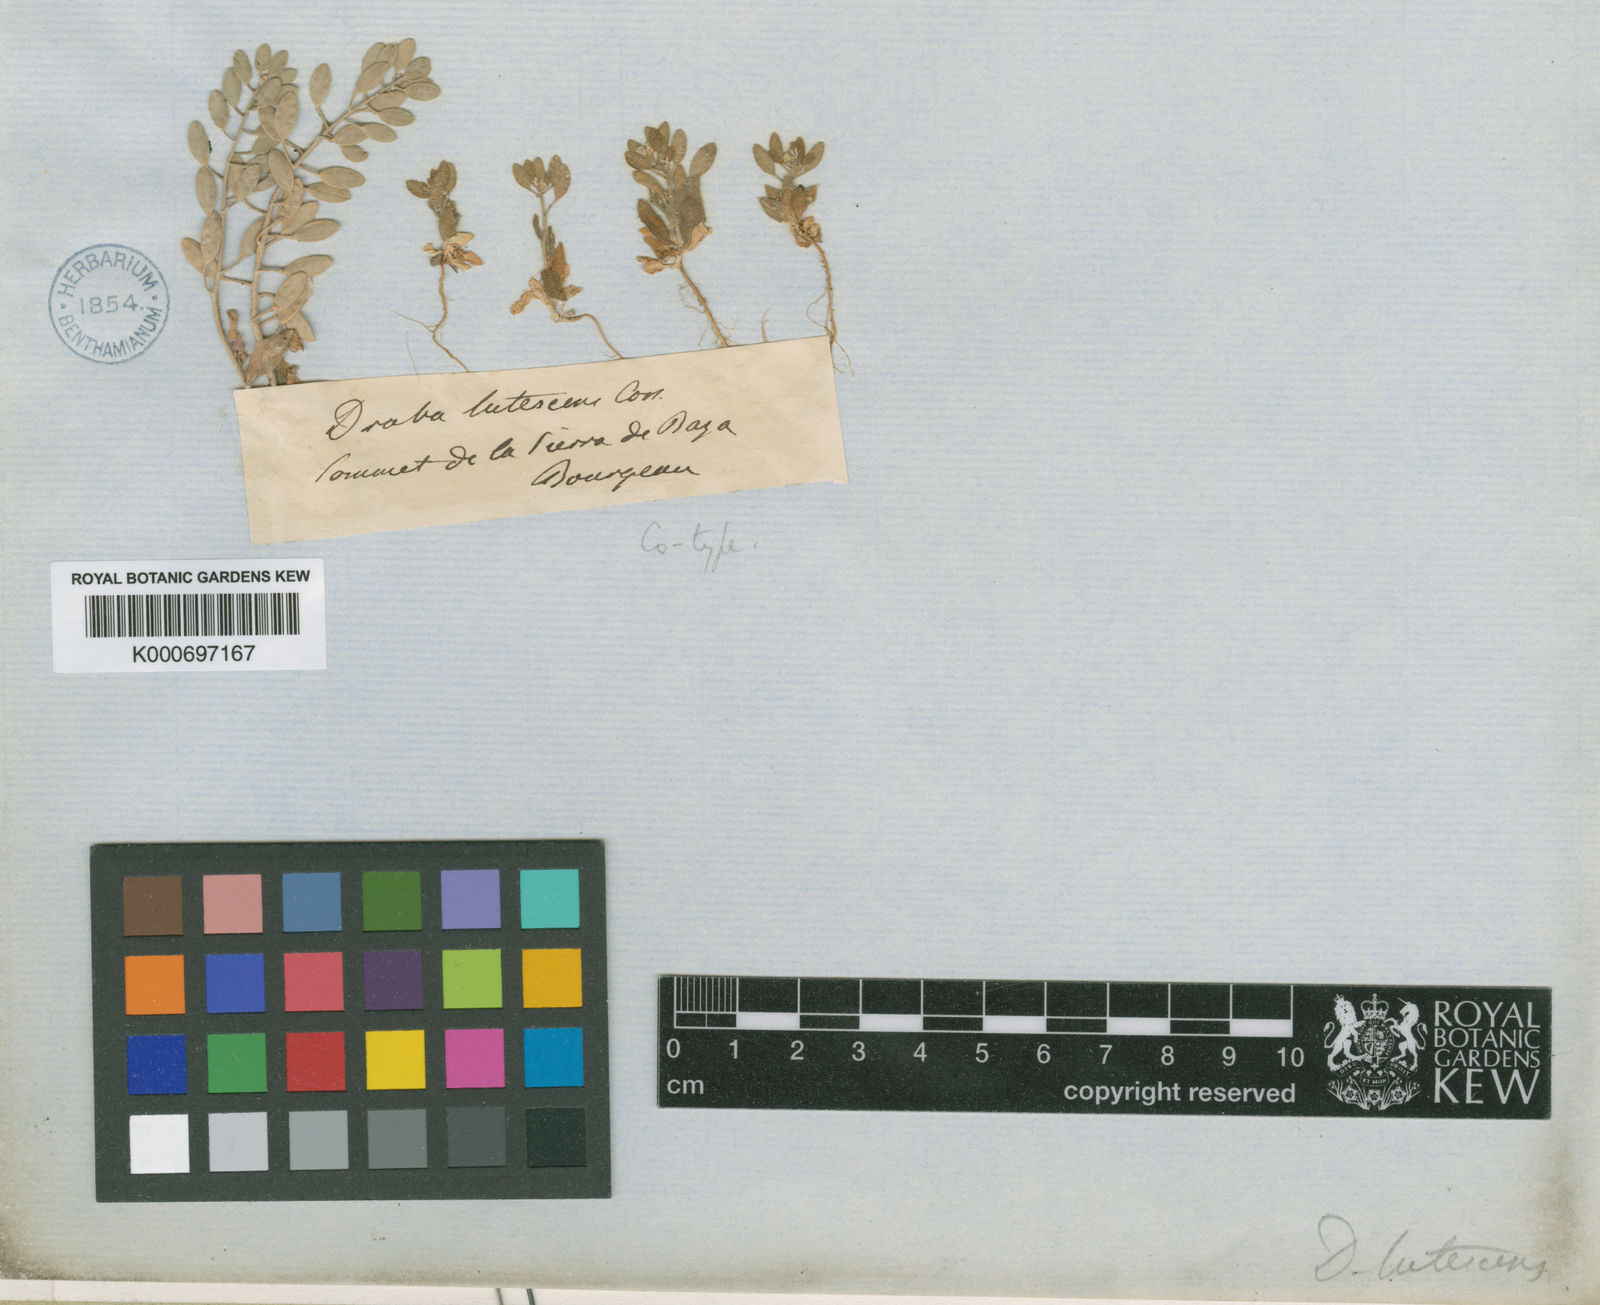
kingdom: Plantae
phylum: Tracheophyta
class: Magnoliopsida
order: Brassicales
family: Brassicaceae
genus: Draba
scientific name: Draba lutescens
